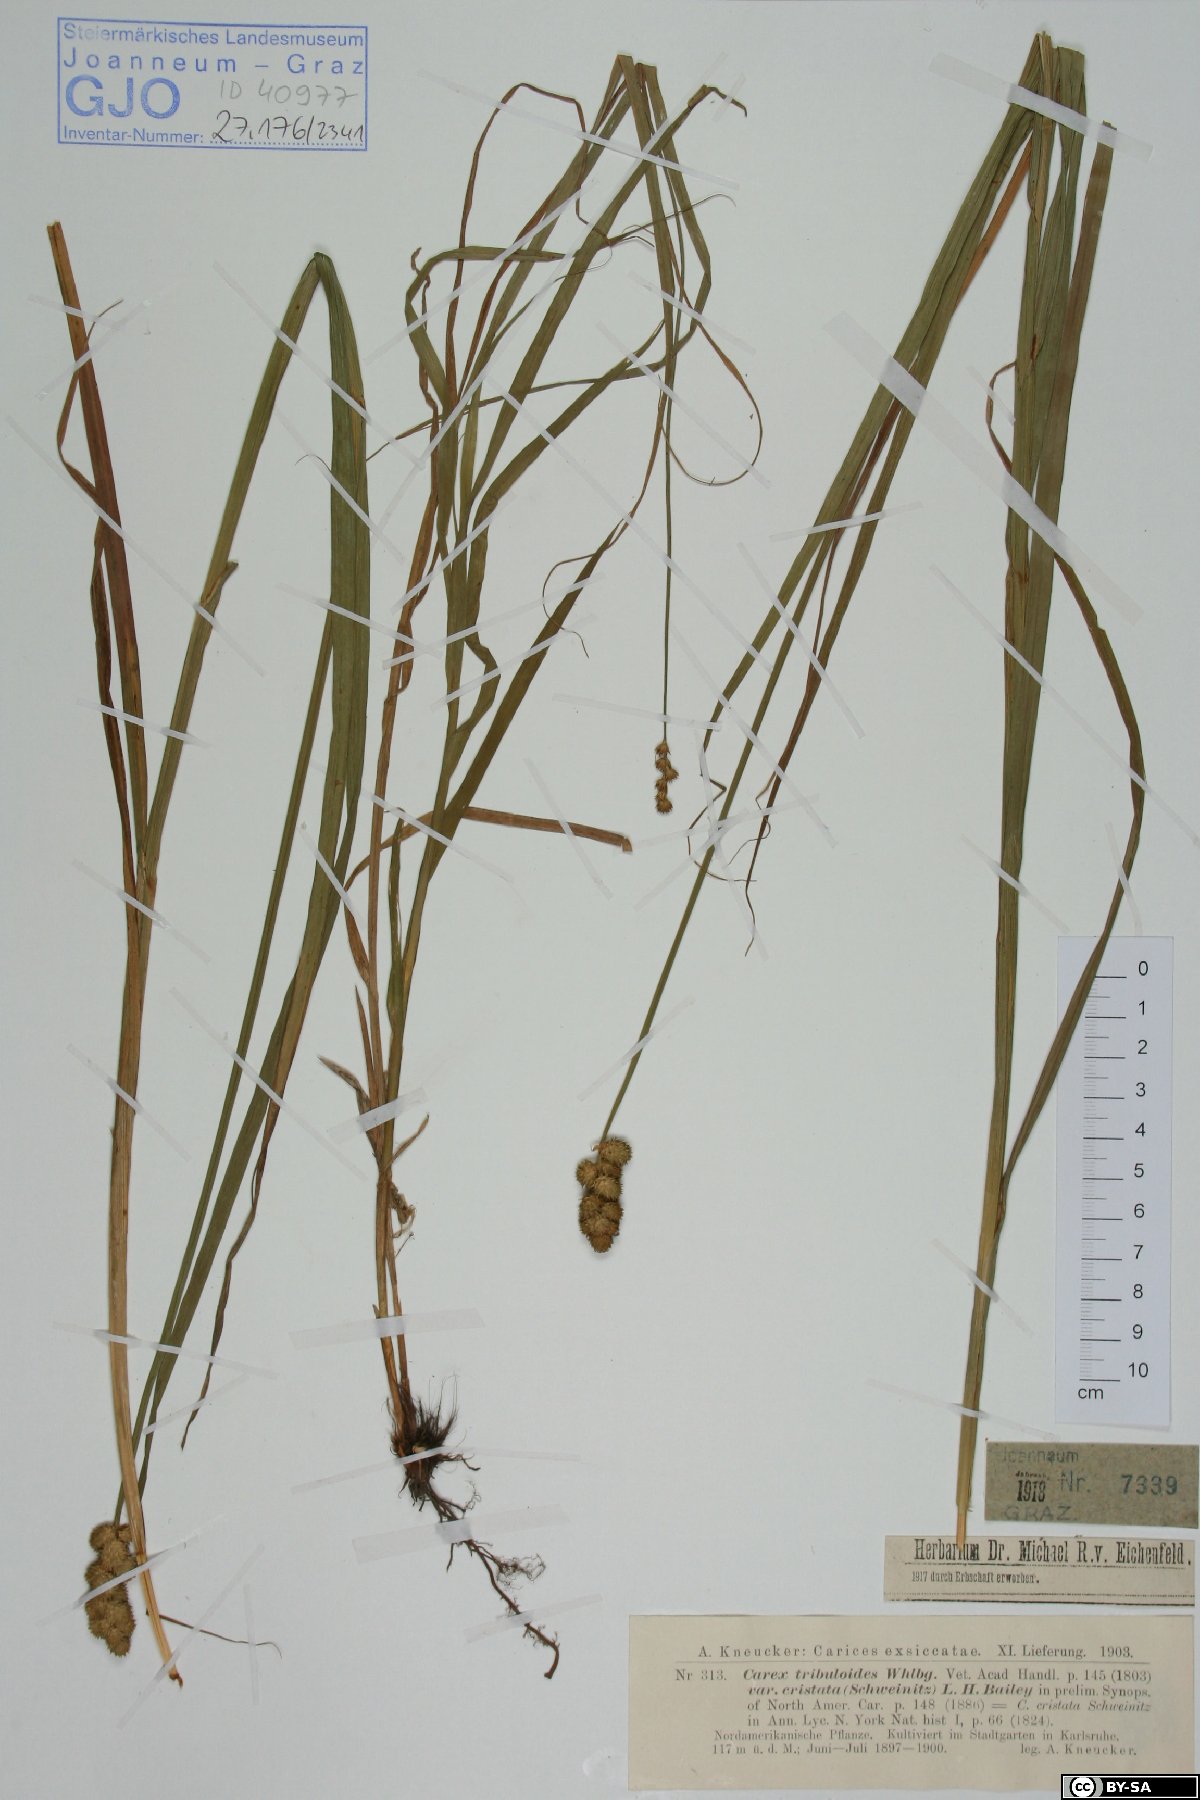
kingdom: Plantae
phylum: Tracheophyta
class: Liliopsida
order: Poales
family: Cyperaceae
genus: Carex
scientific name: Carex cristatella
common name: Crested oval sedge
